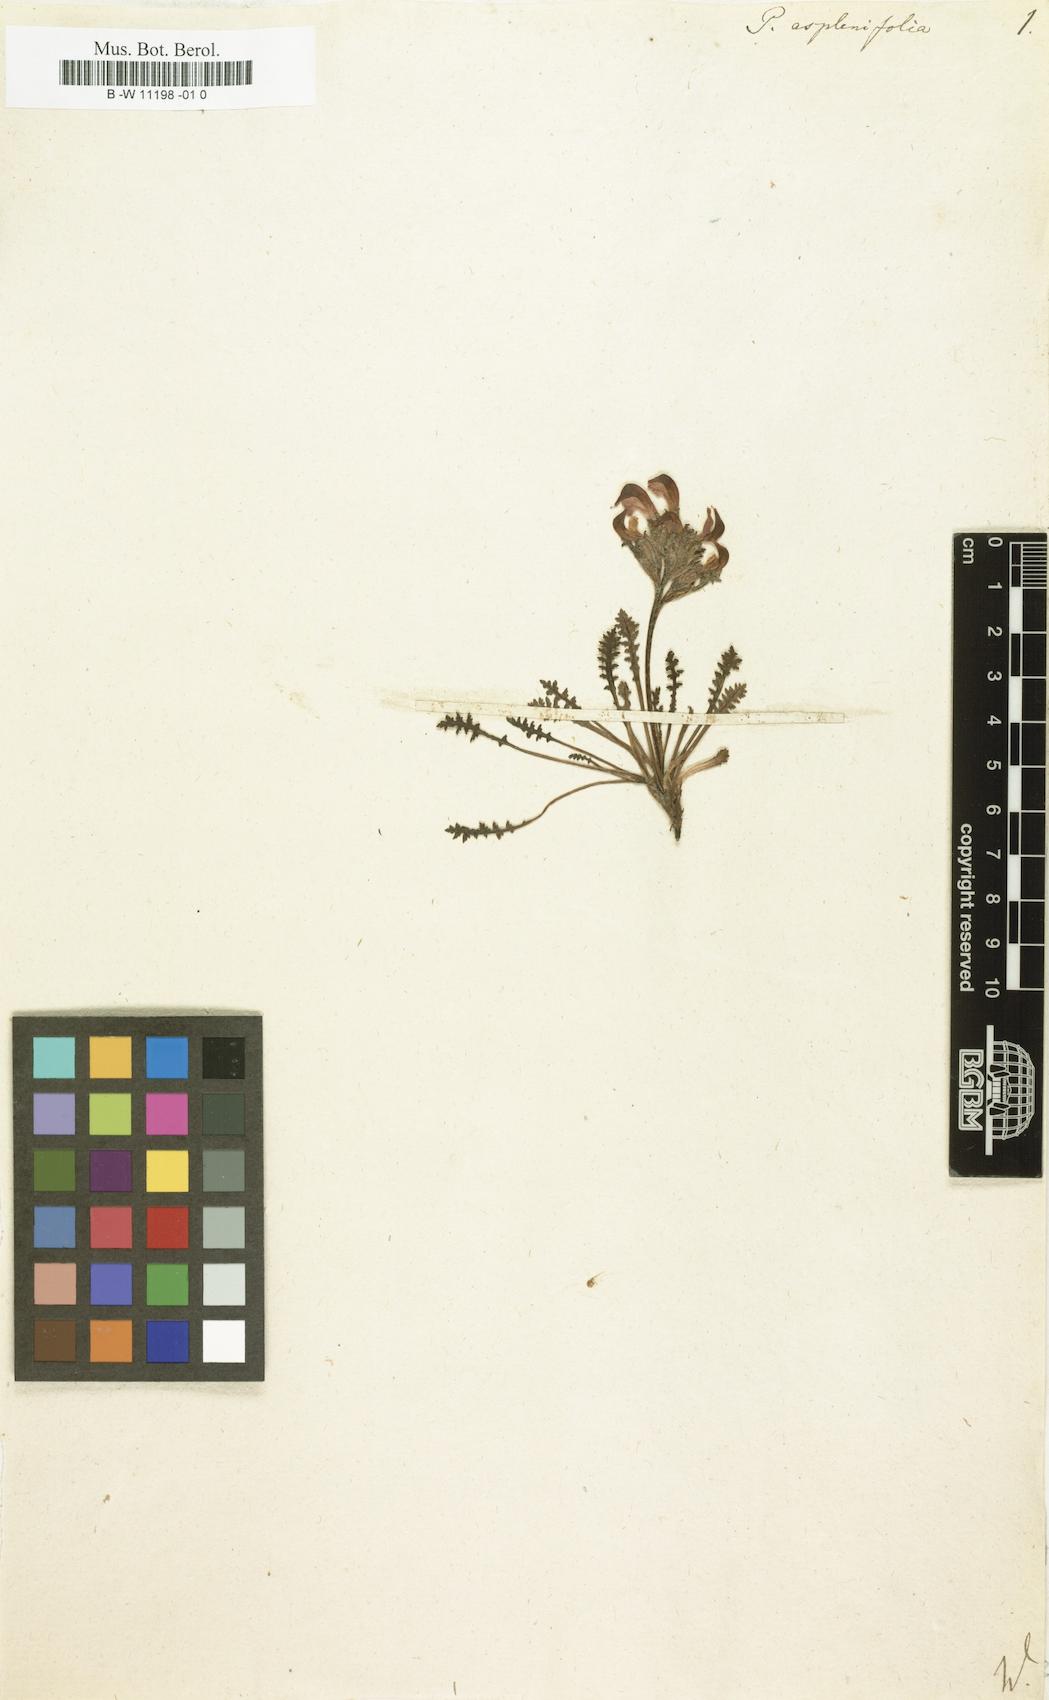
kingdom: Plantae
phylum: Tracheophyta
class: Magnoliopsida
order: Lamiales
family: Orobanchaceae
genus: Pedicularis
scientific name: Pedicularis asplenifolia
